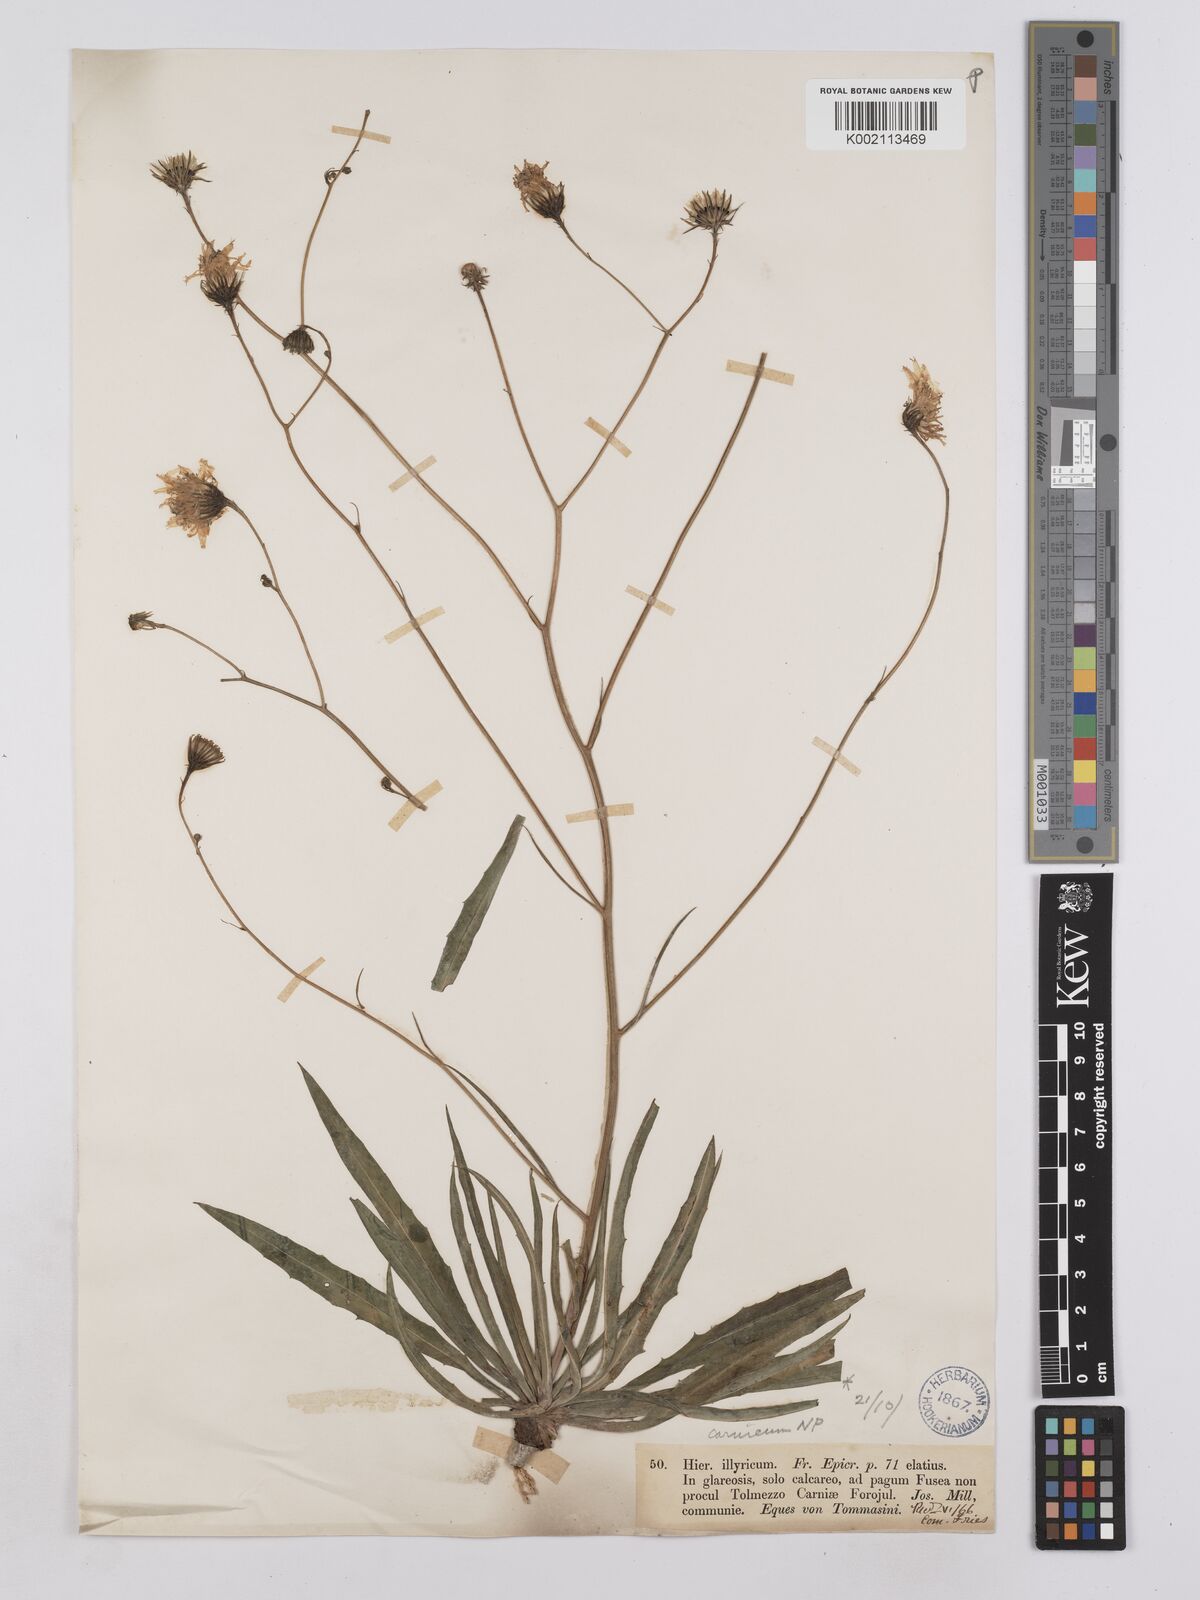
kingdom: Plantae
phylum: Tracheophyta
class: Magnoliopsida
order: Asterales
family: Asteraceae
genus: Hieracium
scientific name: Hieracium calcareum
